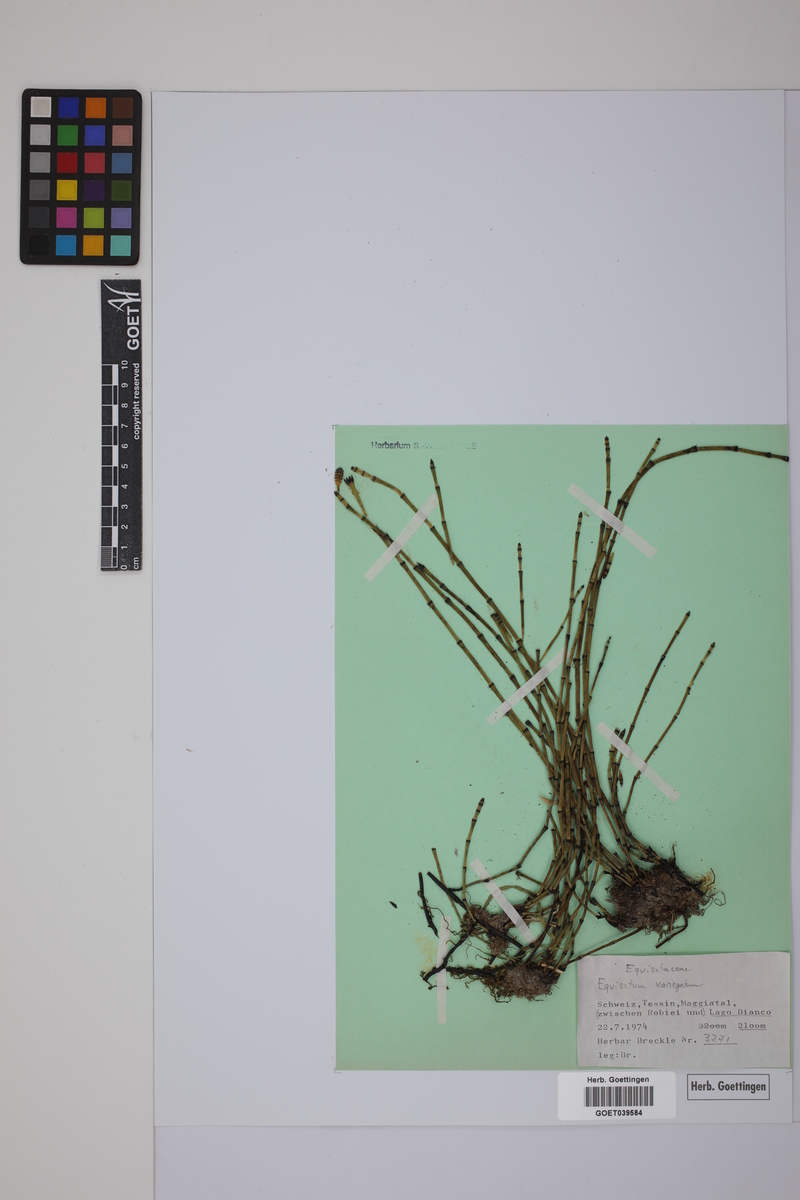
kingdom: Plantae
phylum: Tracheophyta
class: Polypodiopsida
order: Equisetales
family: Equisetaceae
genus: Equisetum
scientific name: Equisetum variegatum
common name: Variegated horsetail
